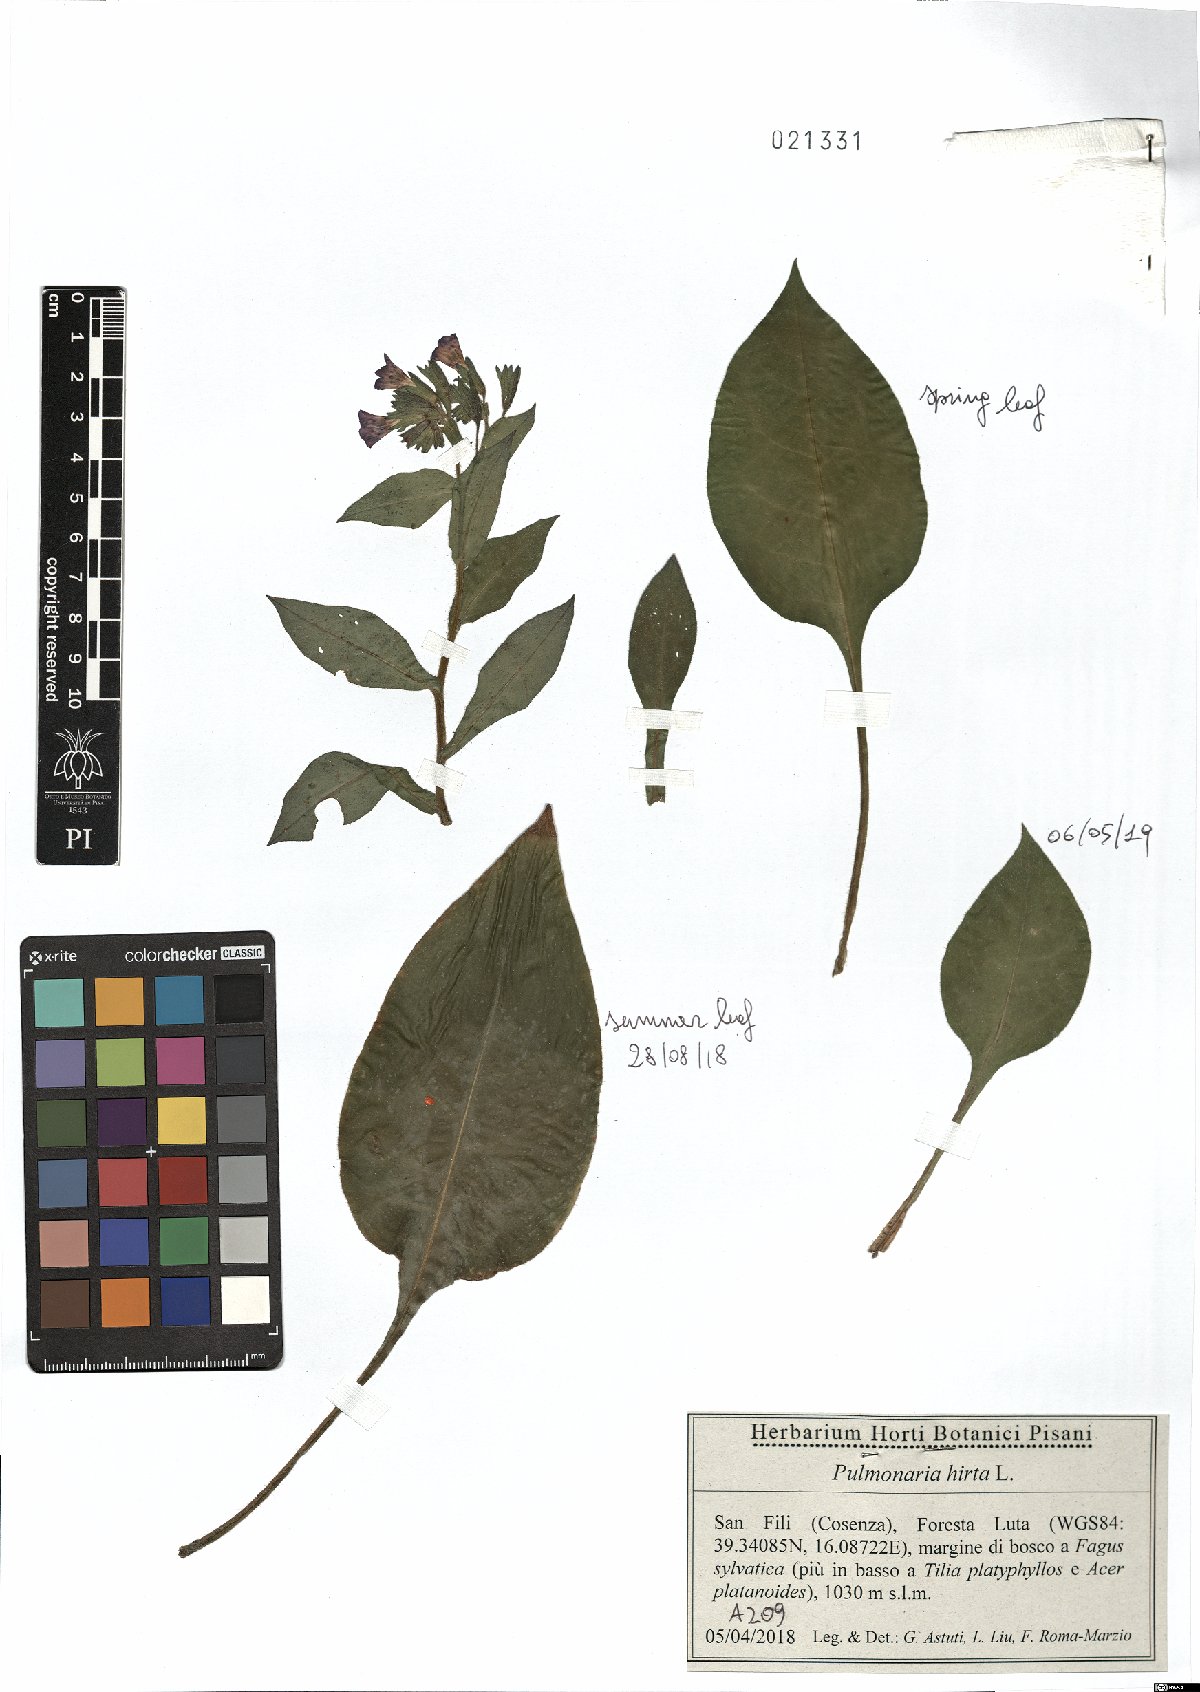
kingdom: Plantae
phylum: Tracheophyta
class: Magnoliopsida
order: Boraginales
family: Boraginaceae
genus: Pulmonaria
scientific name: Pulmonaria hirta
